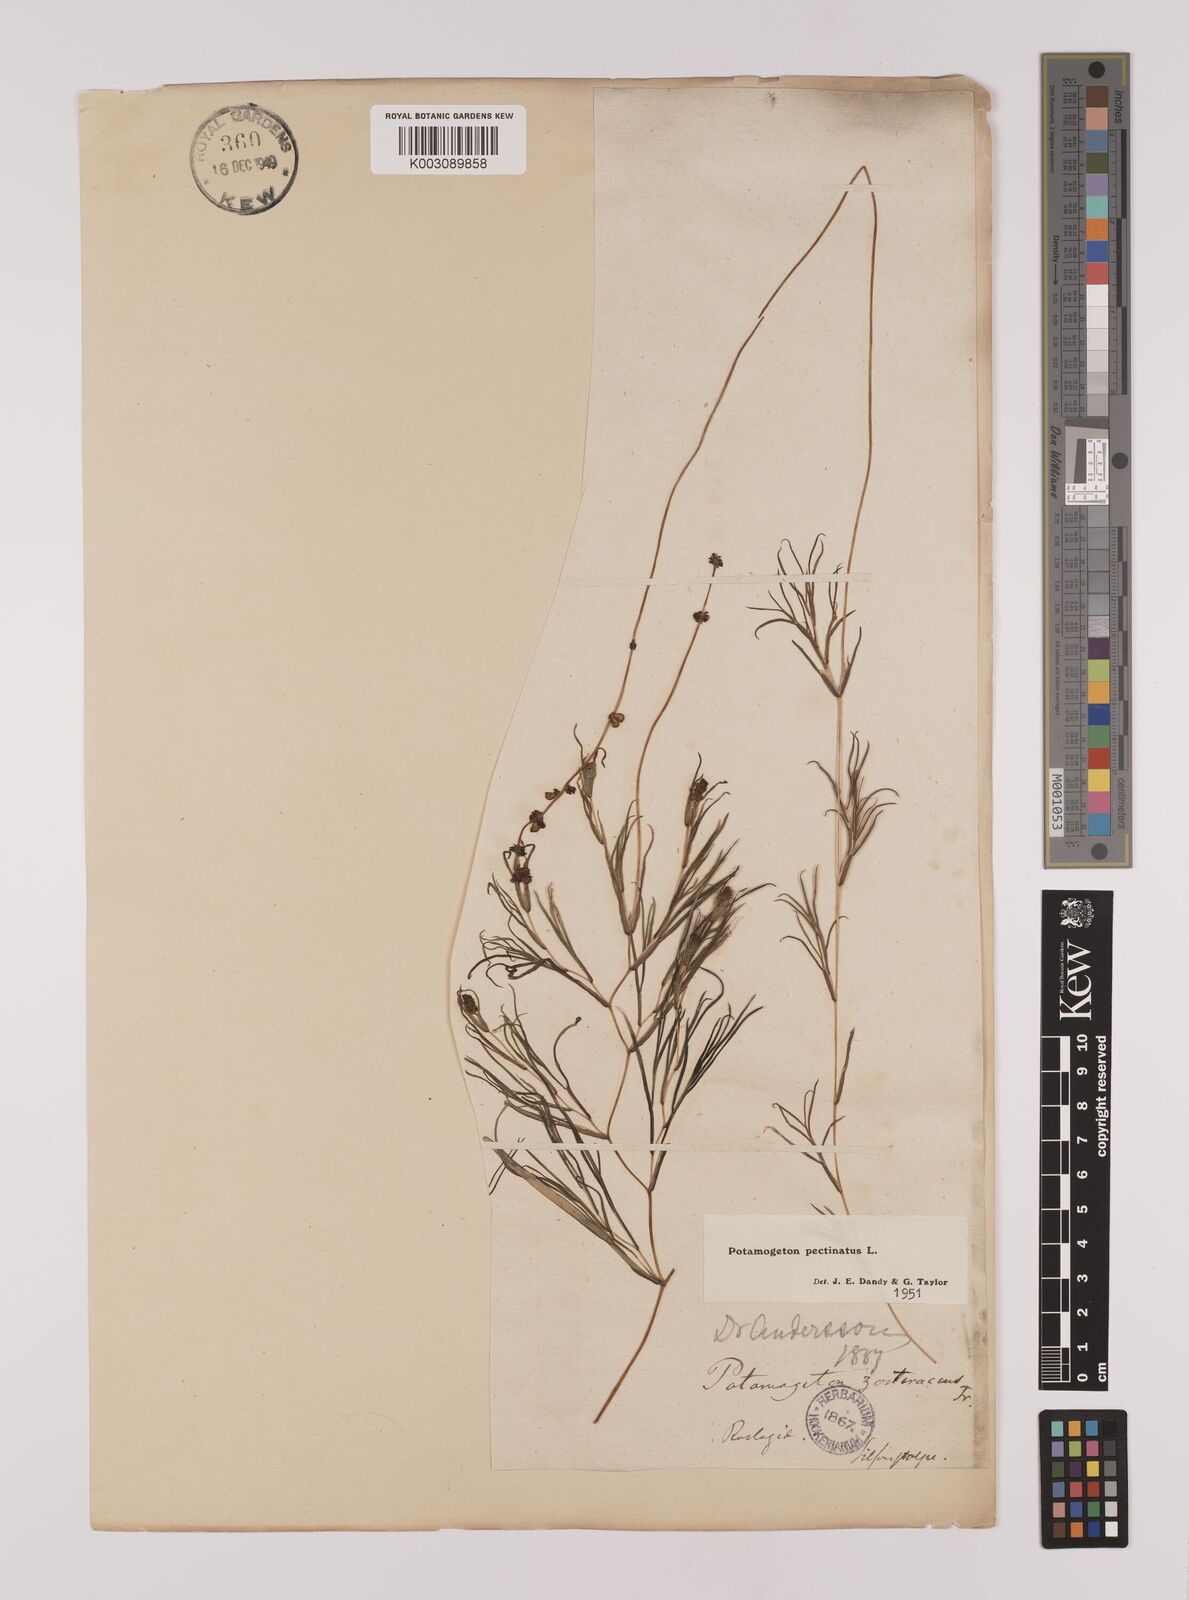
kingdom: Plantae
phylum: Tracheophyta
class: Liliopsida
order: Alismatales
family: Potamogetonaceae
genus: Stuckenia
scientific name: Stuckenia pectinata
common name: Sago pondweed
